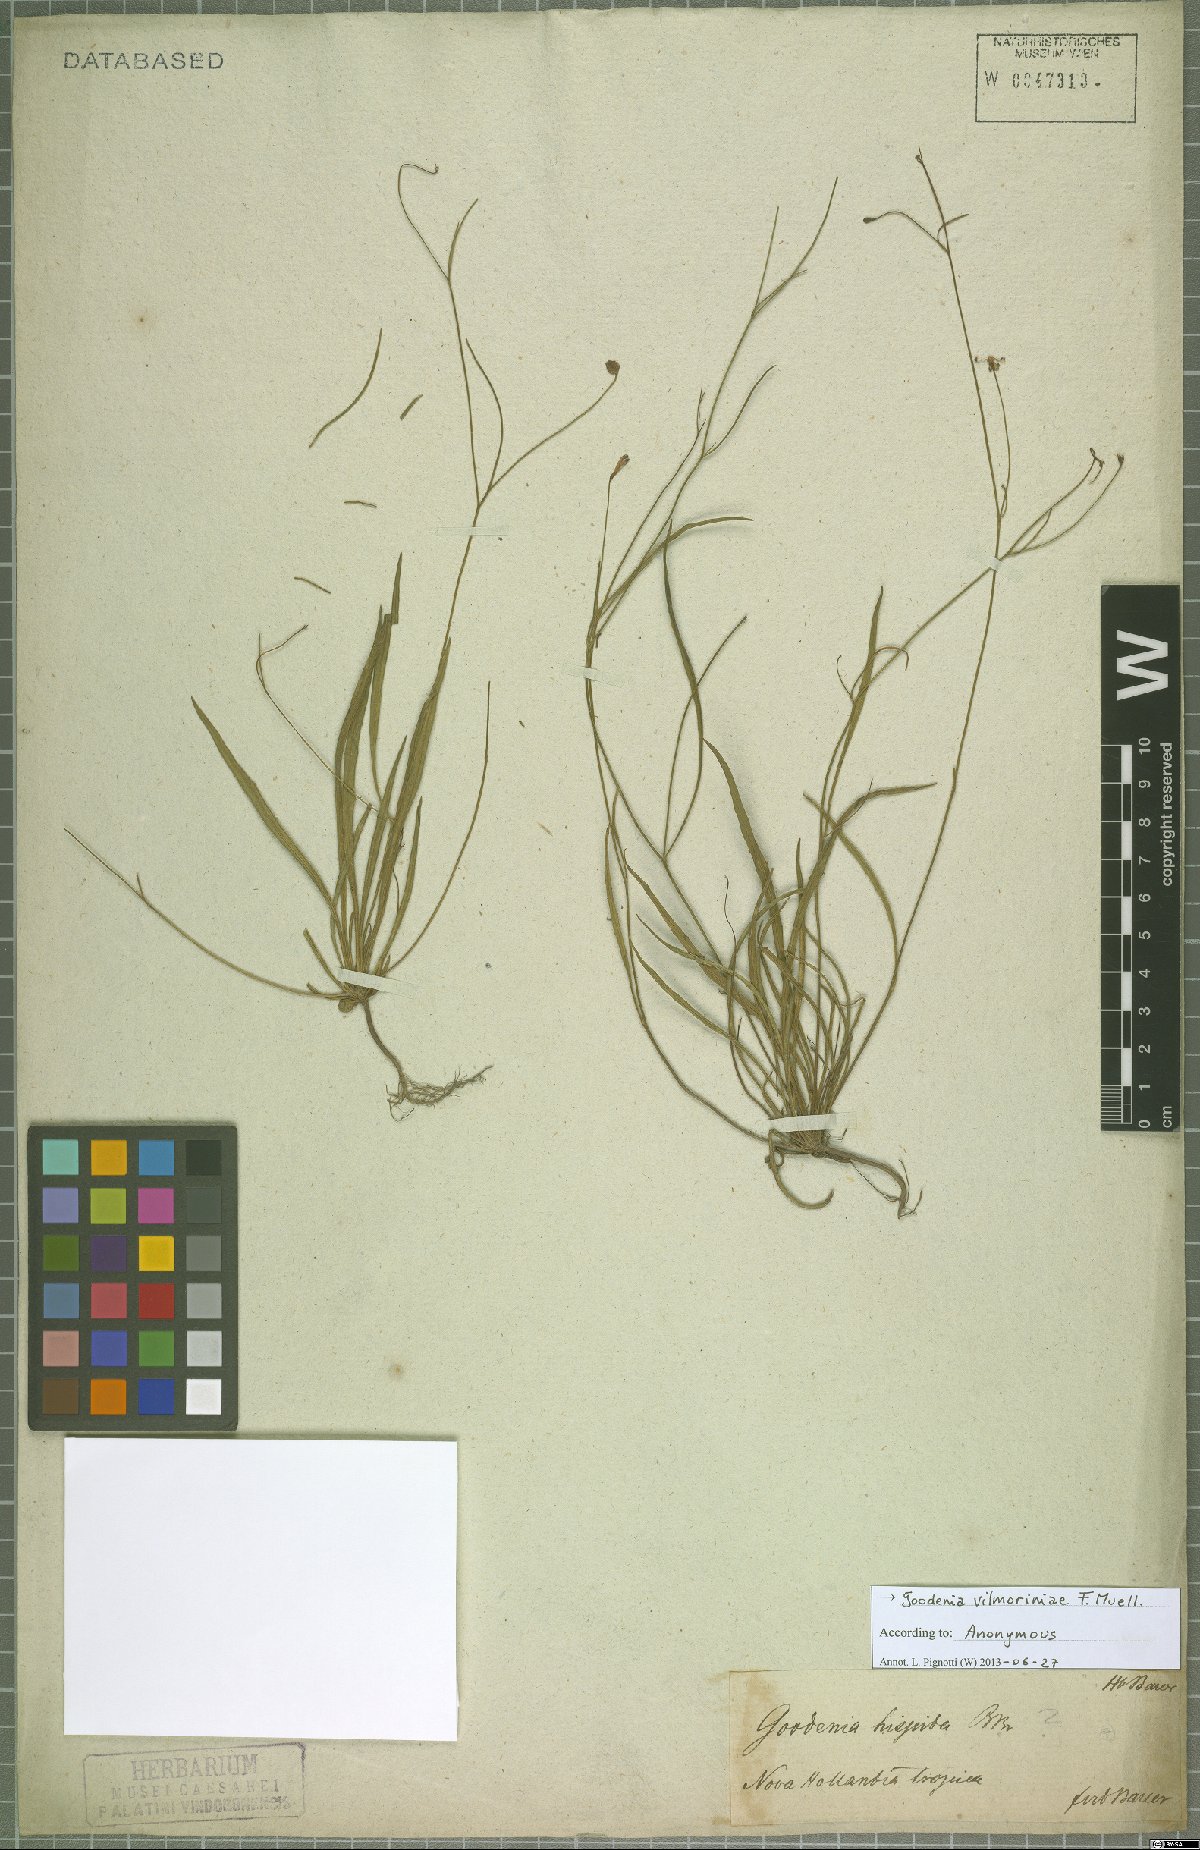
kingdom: Plantae
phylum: Tracheophyta
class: Magnoliopsida
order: Asterales
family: Goodeniaceae
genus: Goodenia
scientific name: Goodenia vilmoriniae
